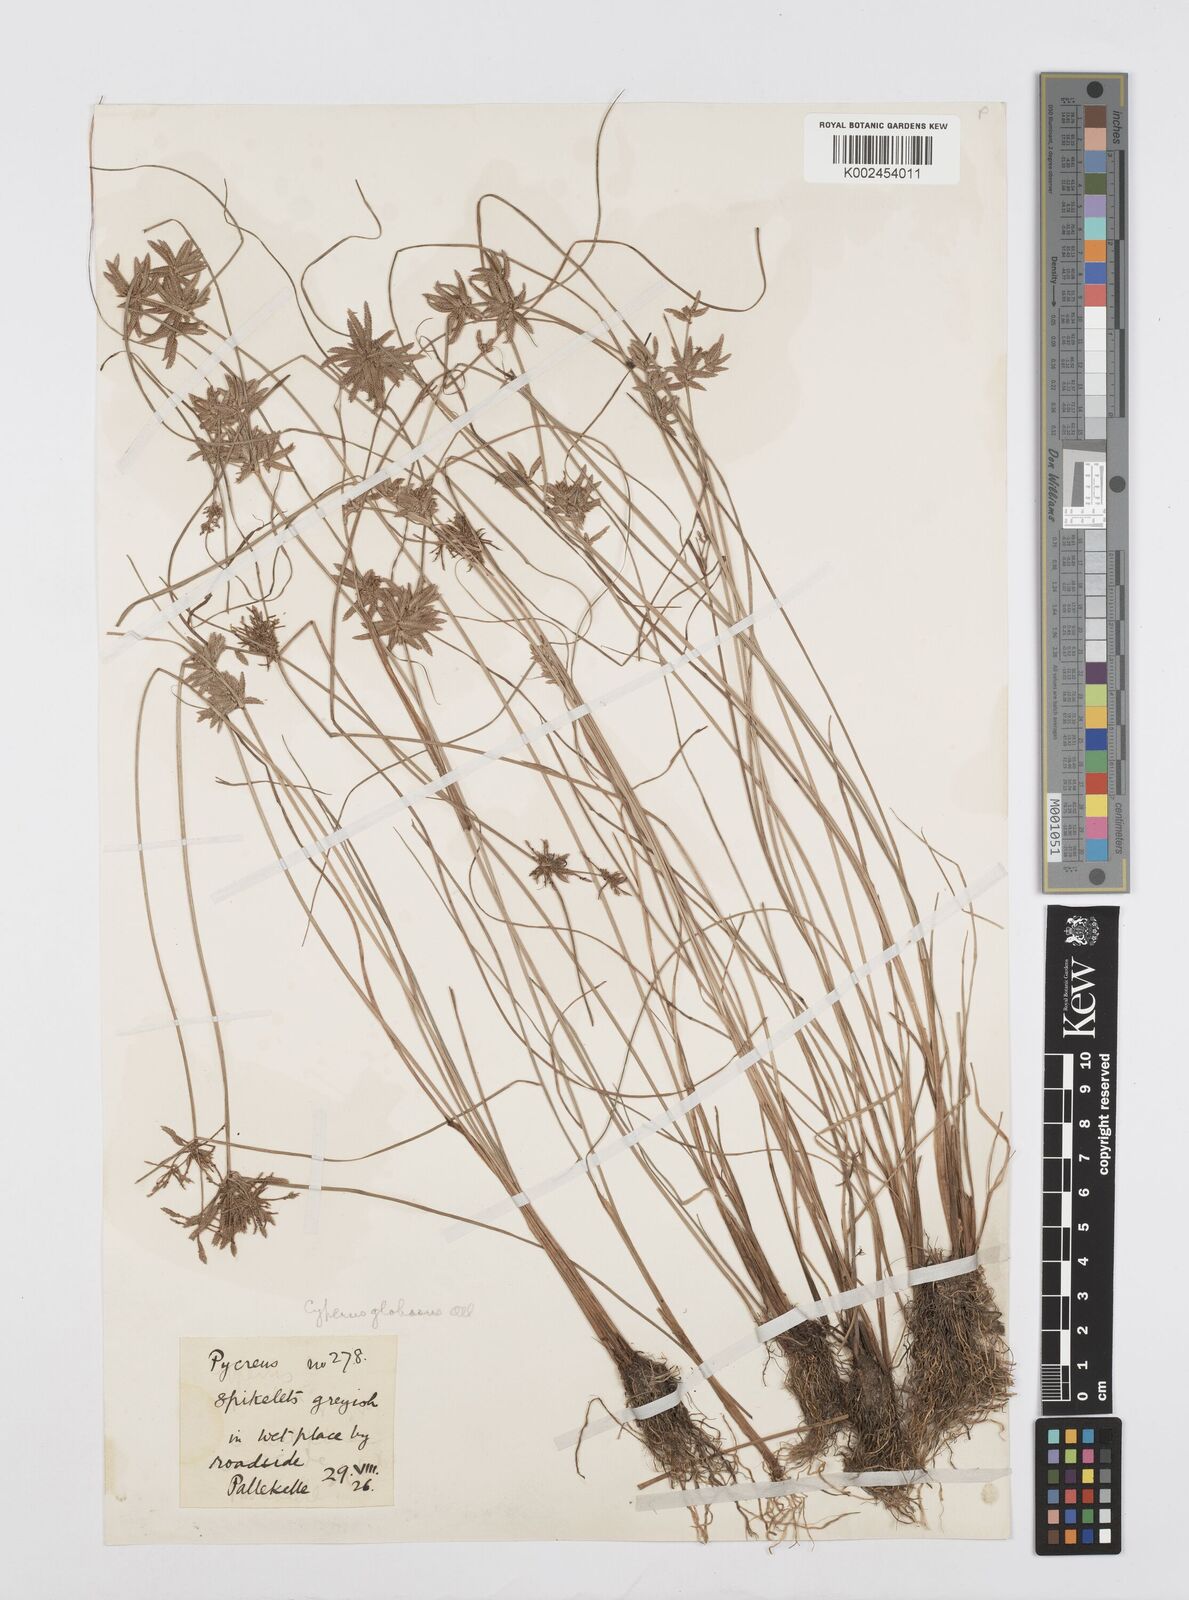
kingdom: Plantae
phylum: Tracheophyta
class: Liliopsida
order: Poales
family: Cyperaceae
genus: Cyperus
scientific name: Cyperus flavidus
